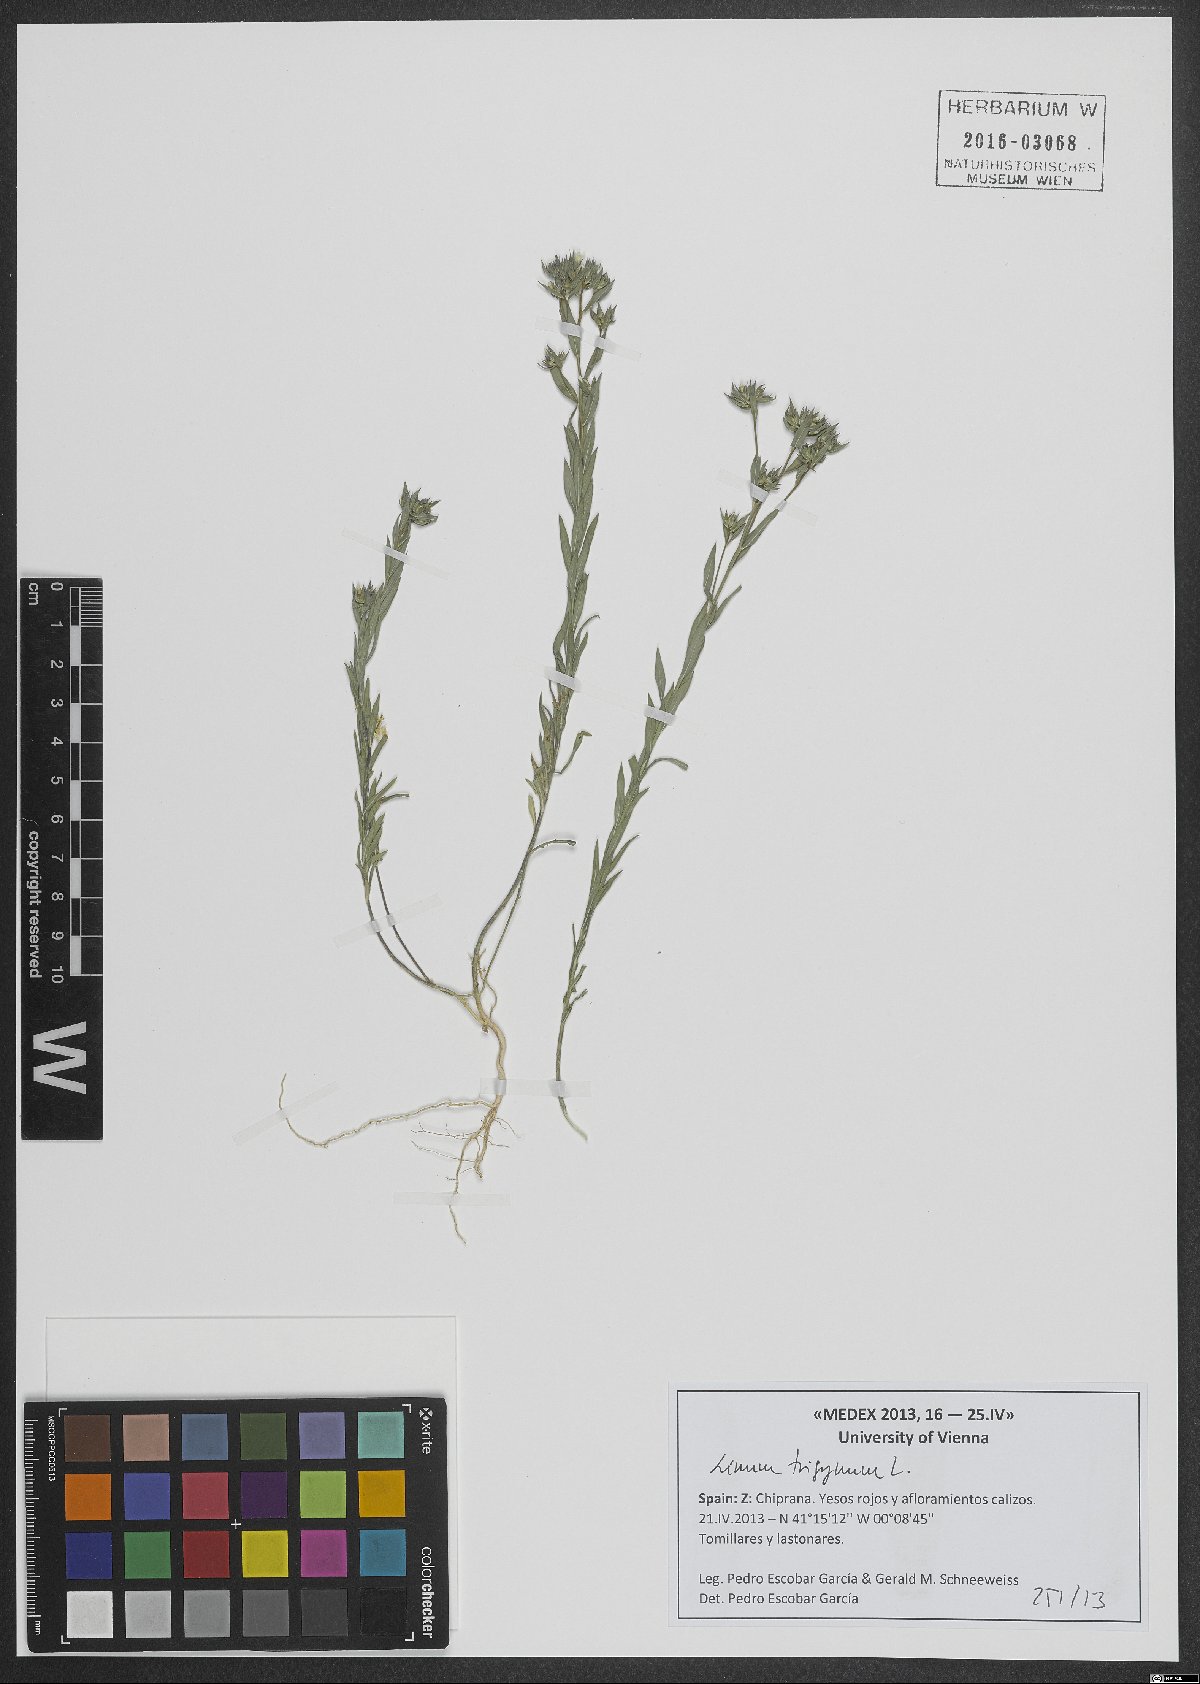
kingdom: Plantae
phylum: Tracheophyta
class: Magnoliopsida
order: Malpighiales
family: Linaceae
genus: Linum
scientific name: Linum trigynum
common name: French flax
